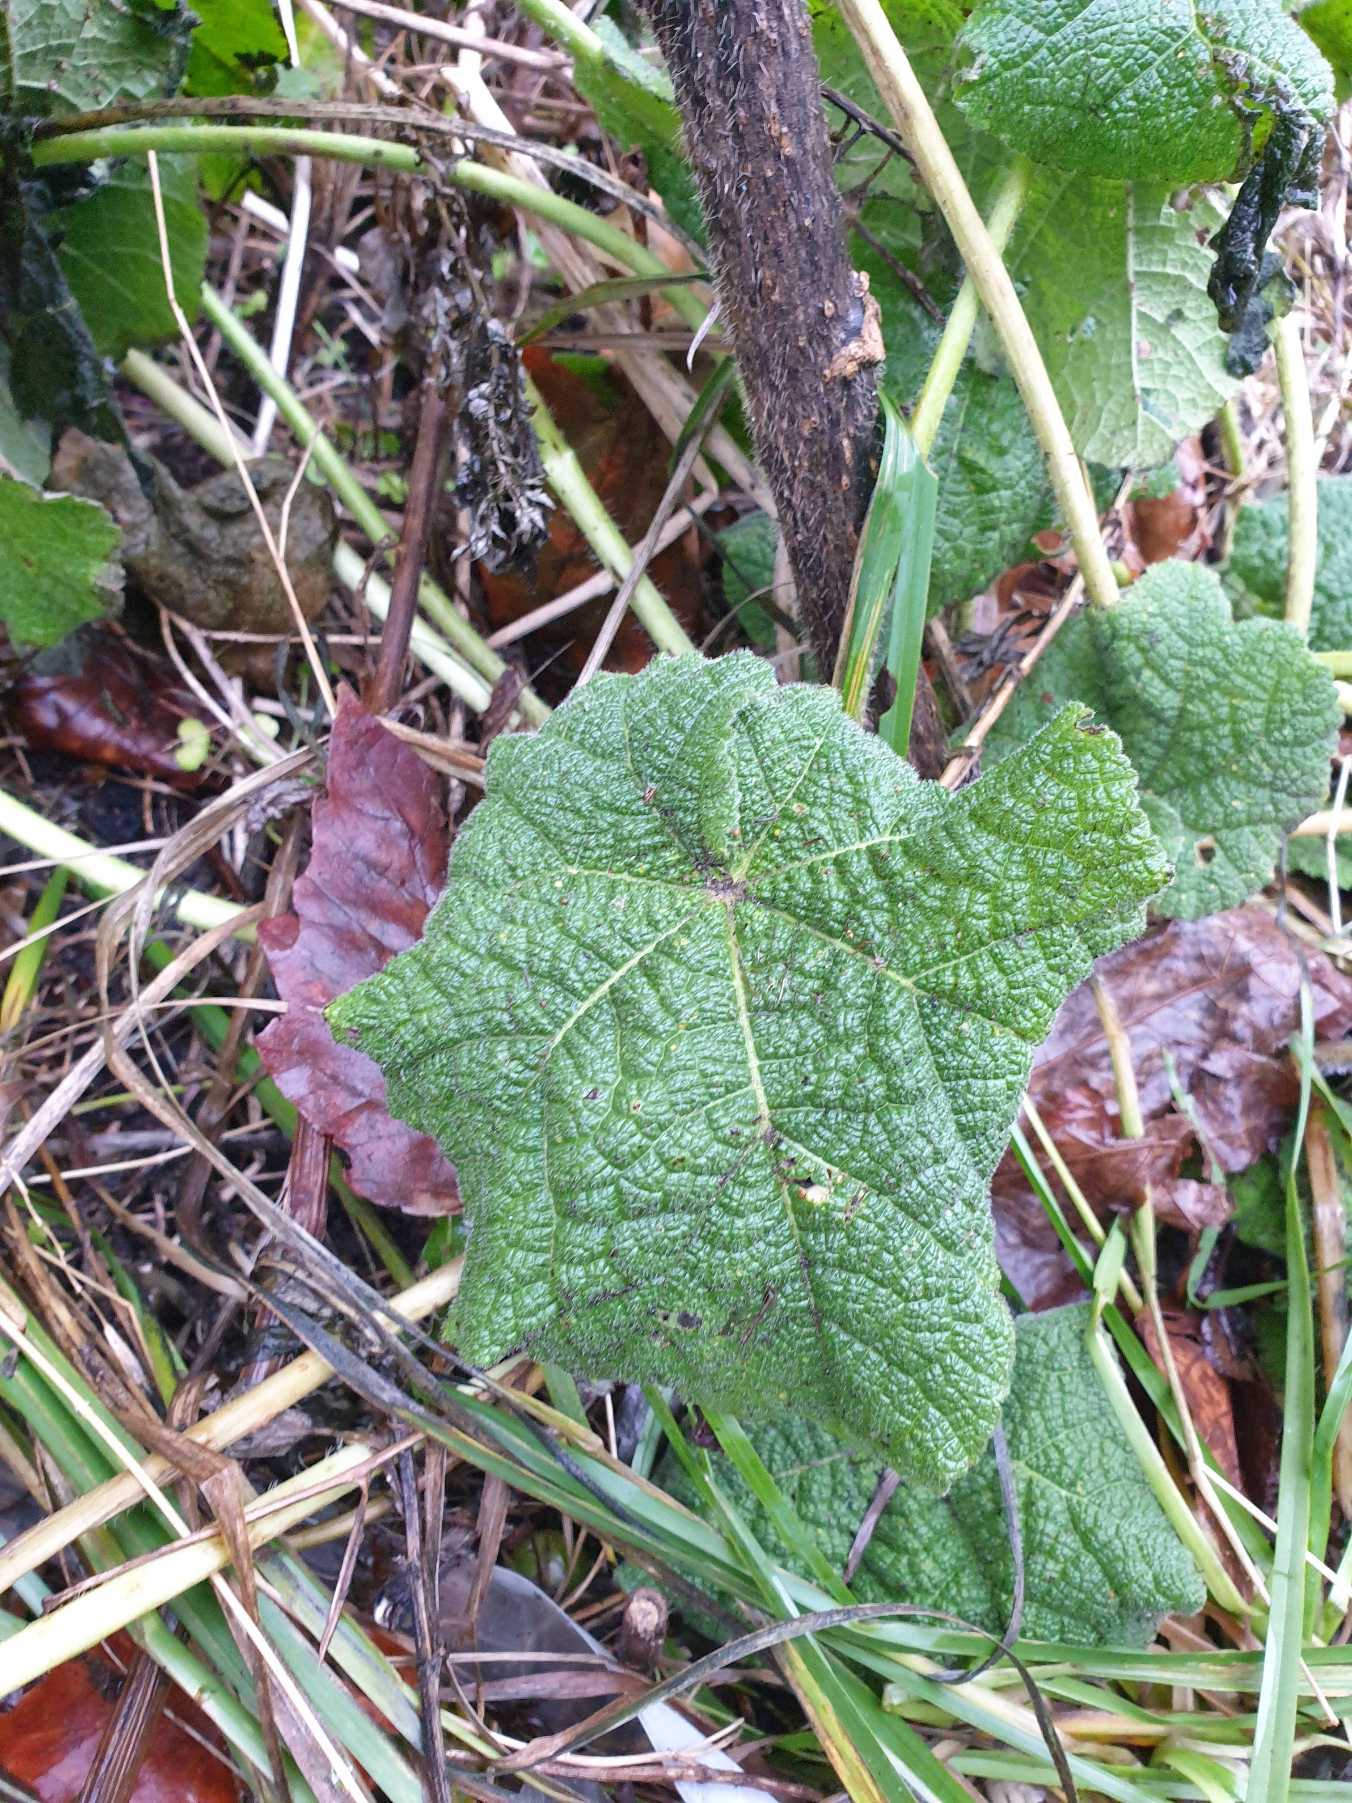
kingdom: Plantae
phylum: Tracheophyta
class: Magnoliopsida
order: Malvales
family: Malvaceae
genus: Alcea
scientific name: Alcea rosea
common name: Have-stokrose
